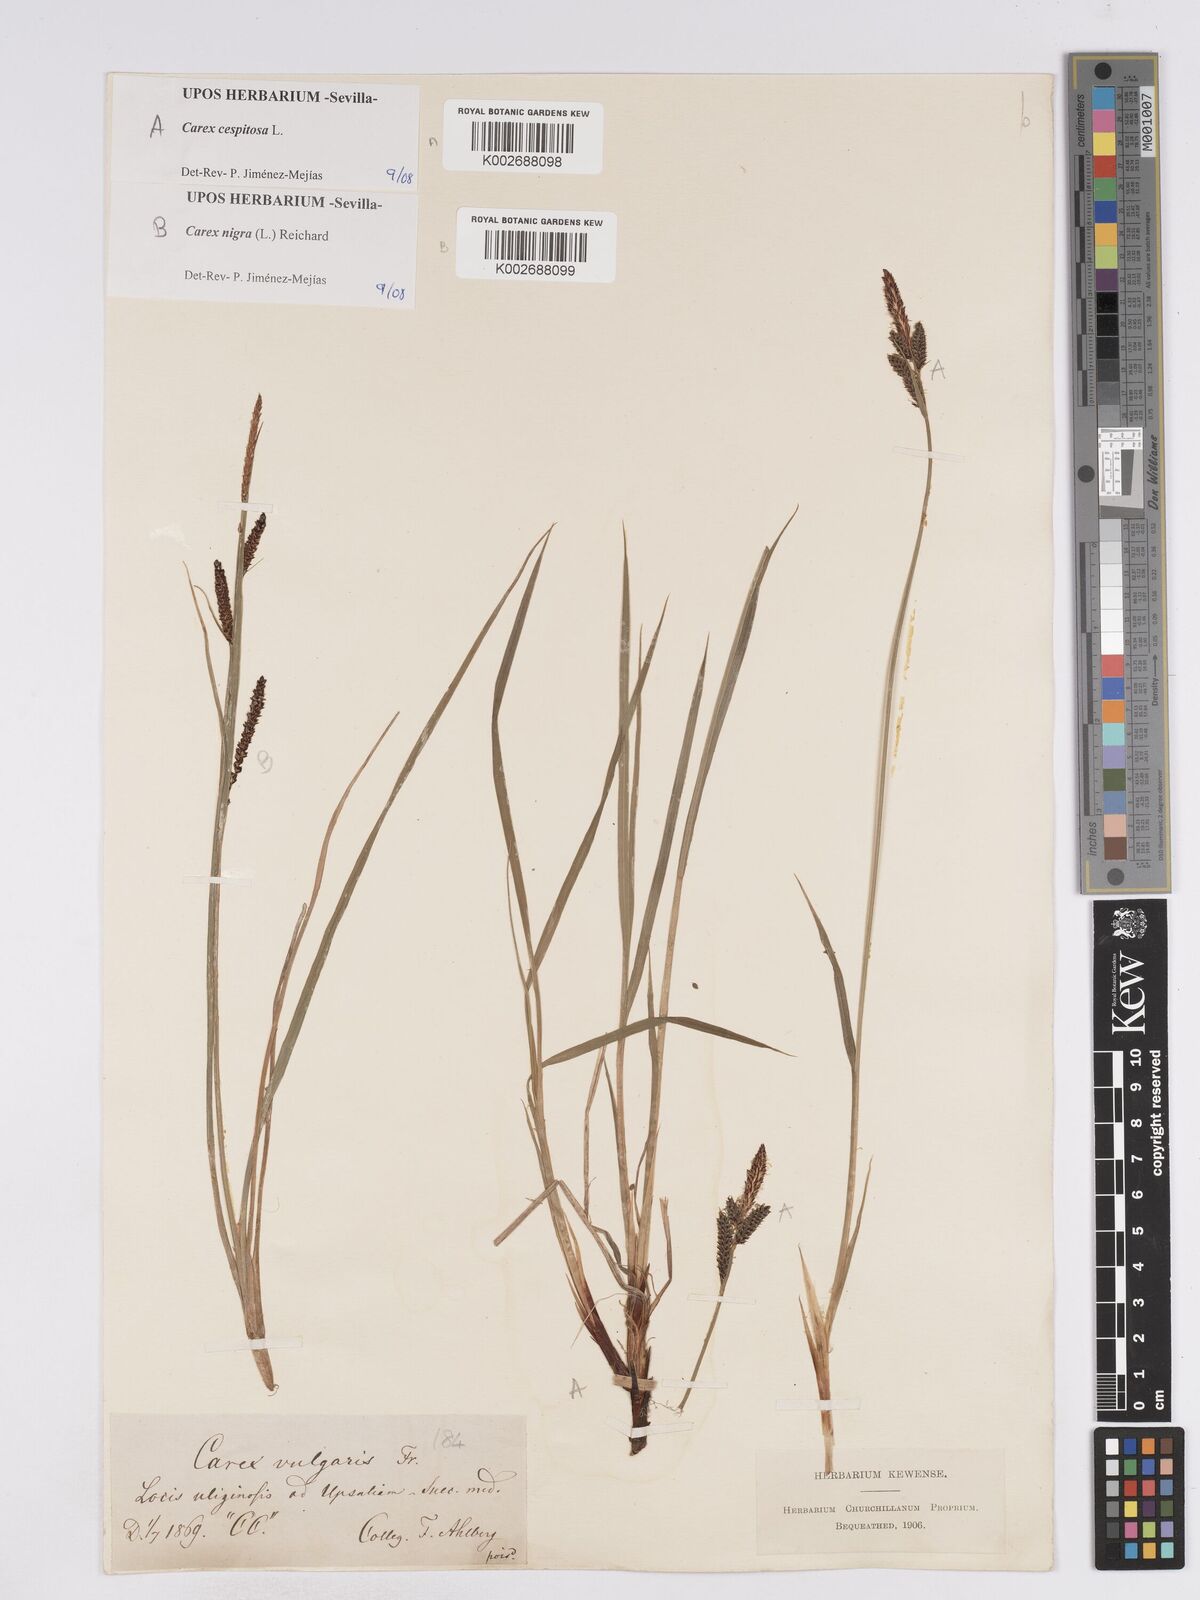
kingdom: Plantae
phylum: Tracheophyta
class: Liliopsida
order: Poales
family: Cyperaceae
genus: Carex
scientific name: Carex
